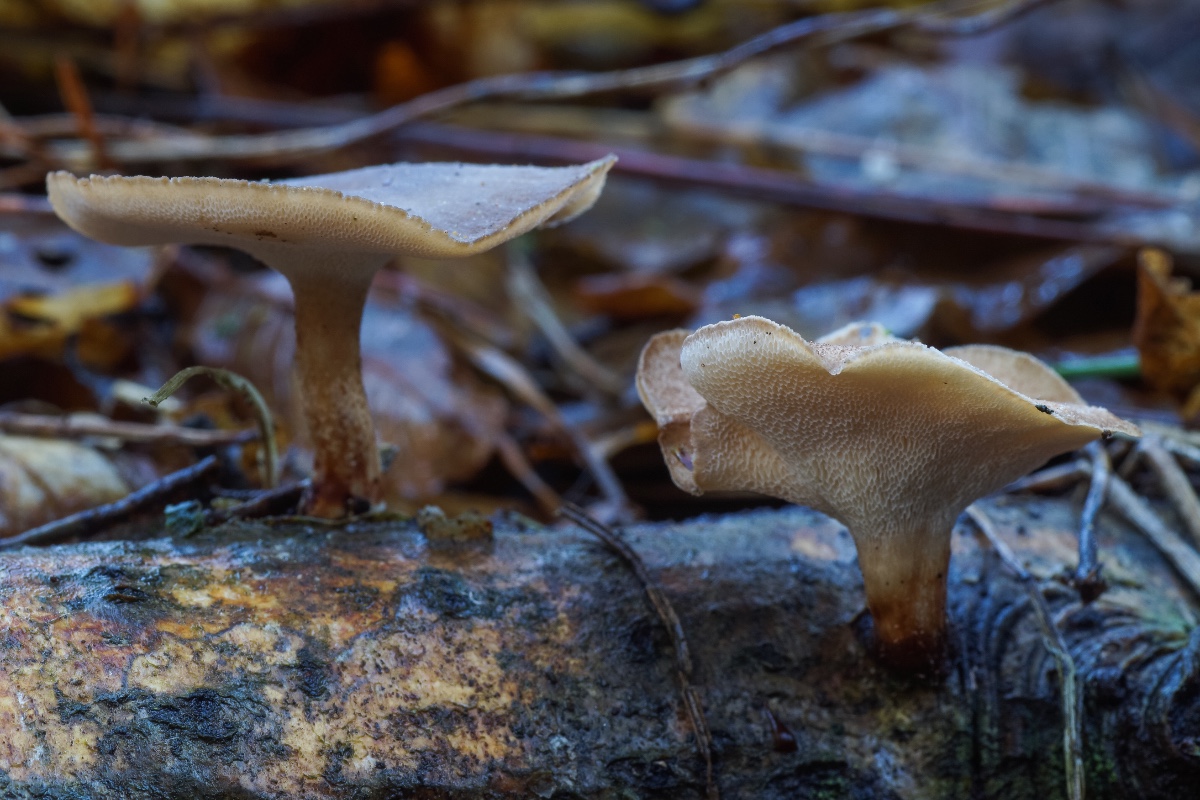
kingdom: Fungi
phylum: Basidiomycota
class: Agaricomycetes
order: Polyporales
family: Polyporaceae
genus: Lentinus
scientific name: Lentinus brumalis
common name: vinter-stilkporesvamp
